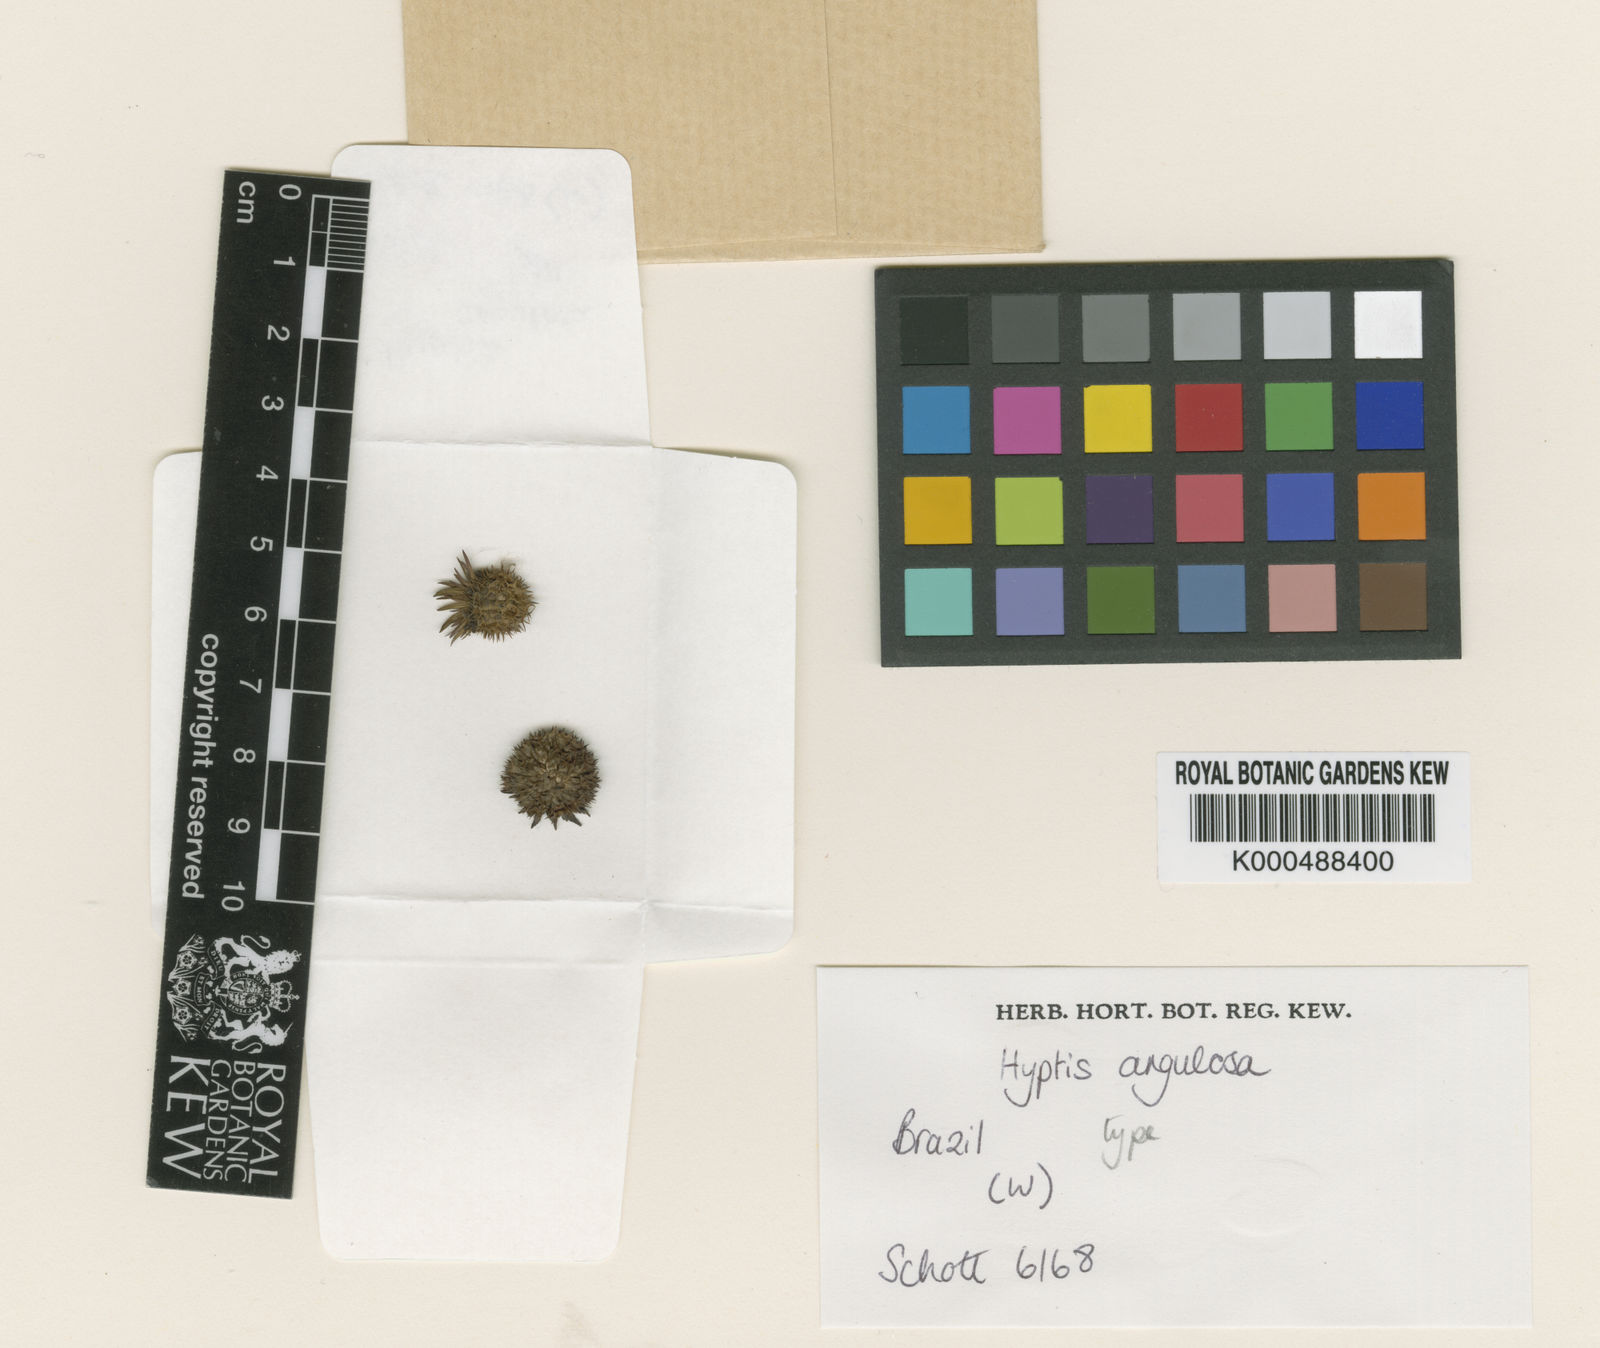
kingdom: Plantae
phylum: Tracheophyta
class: Magnoliopsida
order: Lamiales
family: Lamiaceae
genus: Hyptis
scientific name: Hyptis angulosa
